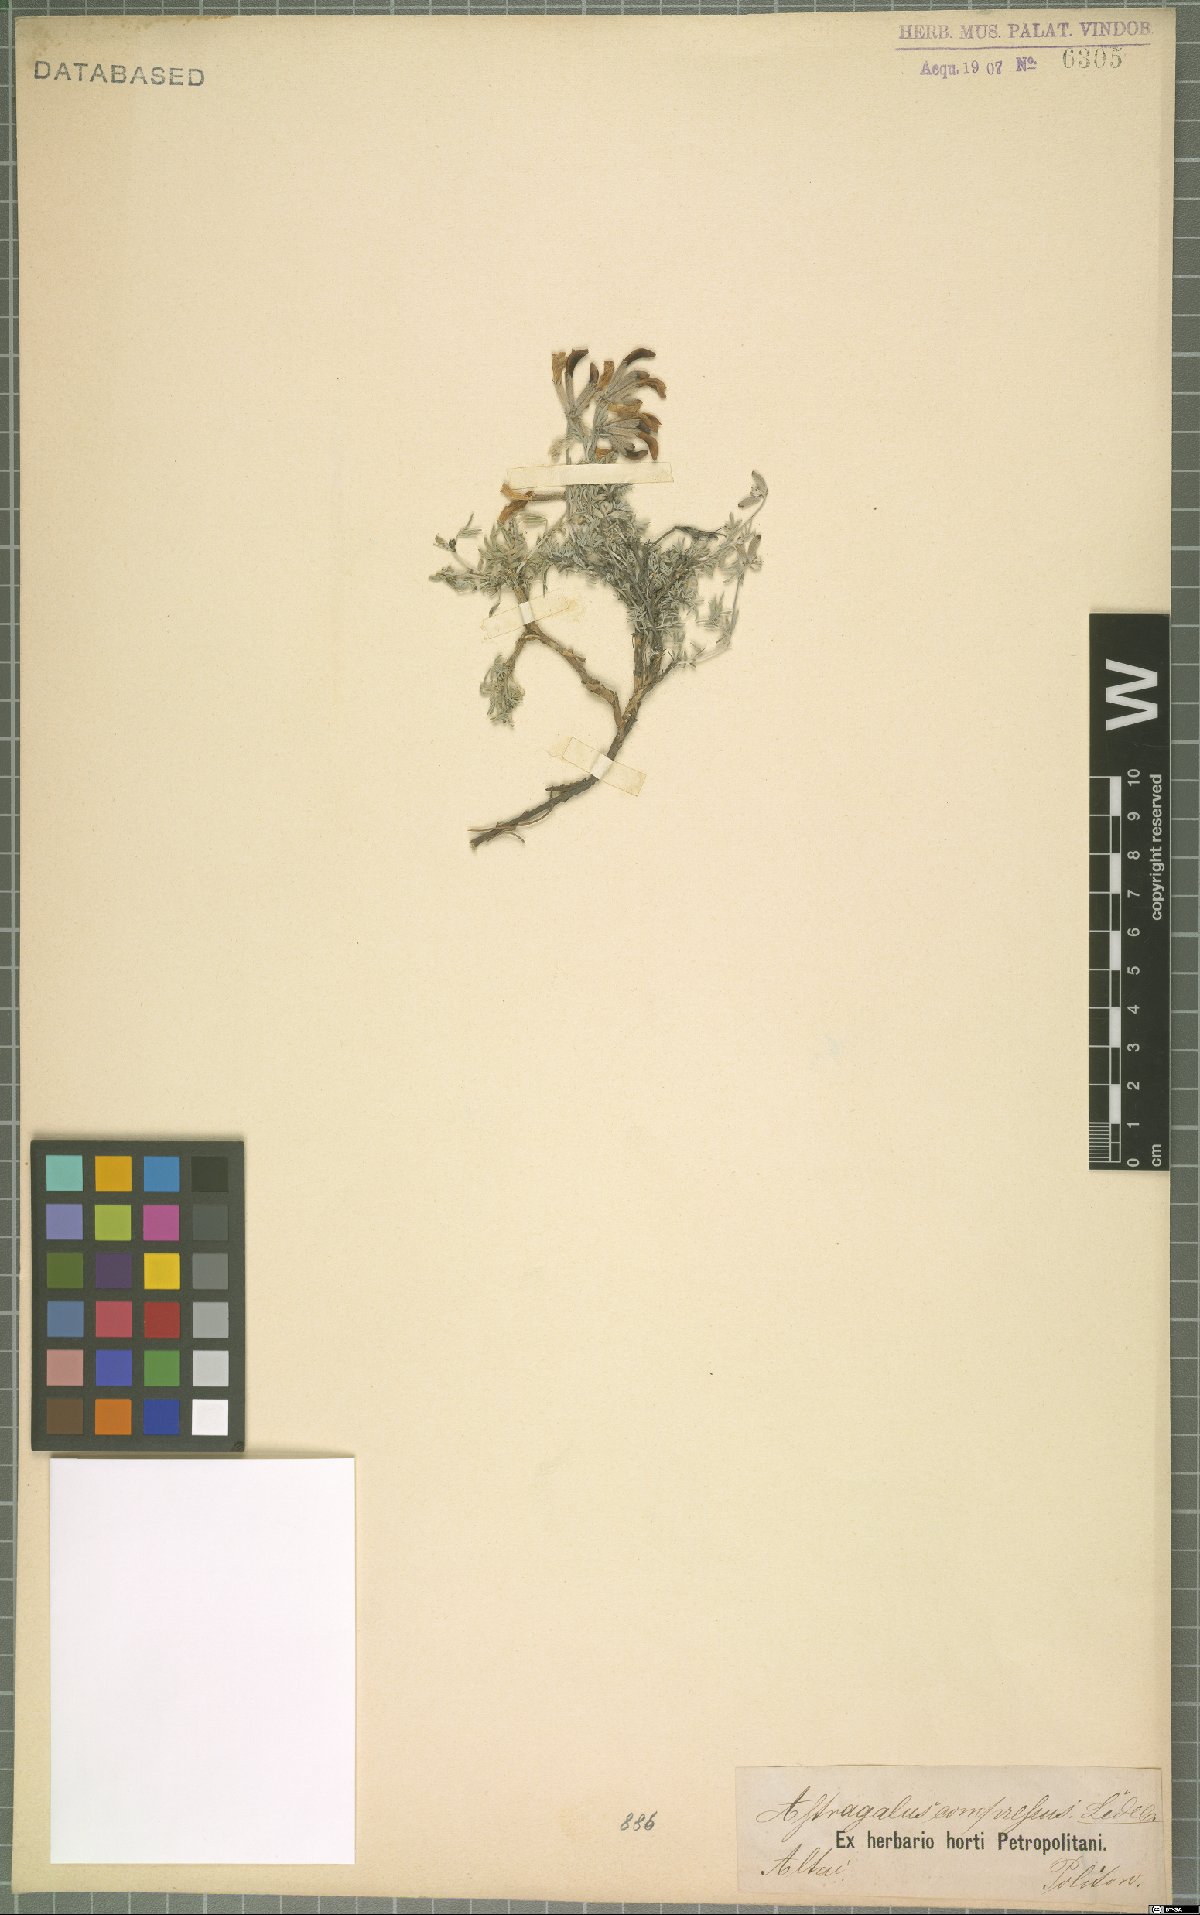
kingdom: Plantae
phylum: Tracheophyta
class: Magnoliopsida
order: Fabales
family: Fabaceae
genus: Astragalus
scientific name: Astragalus compressus
